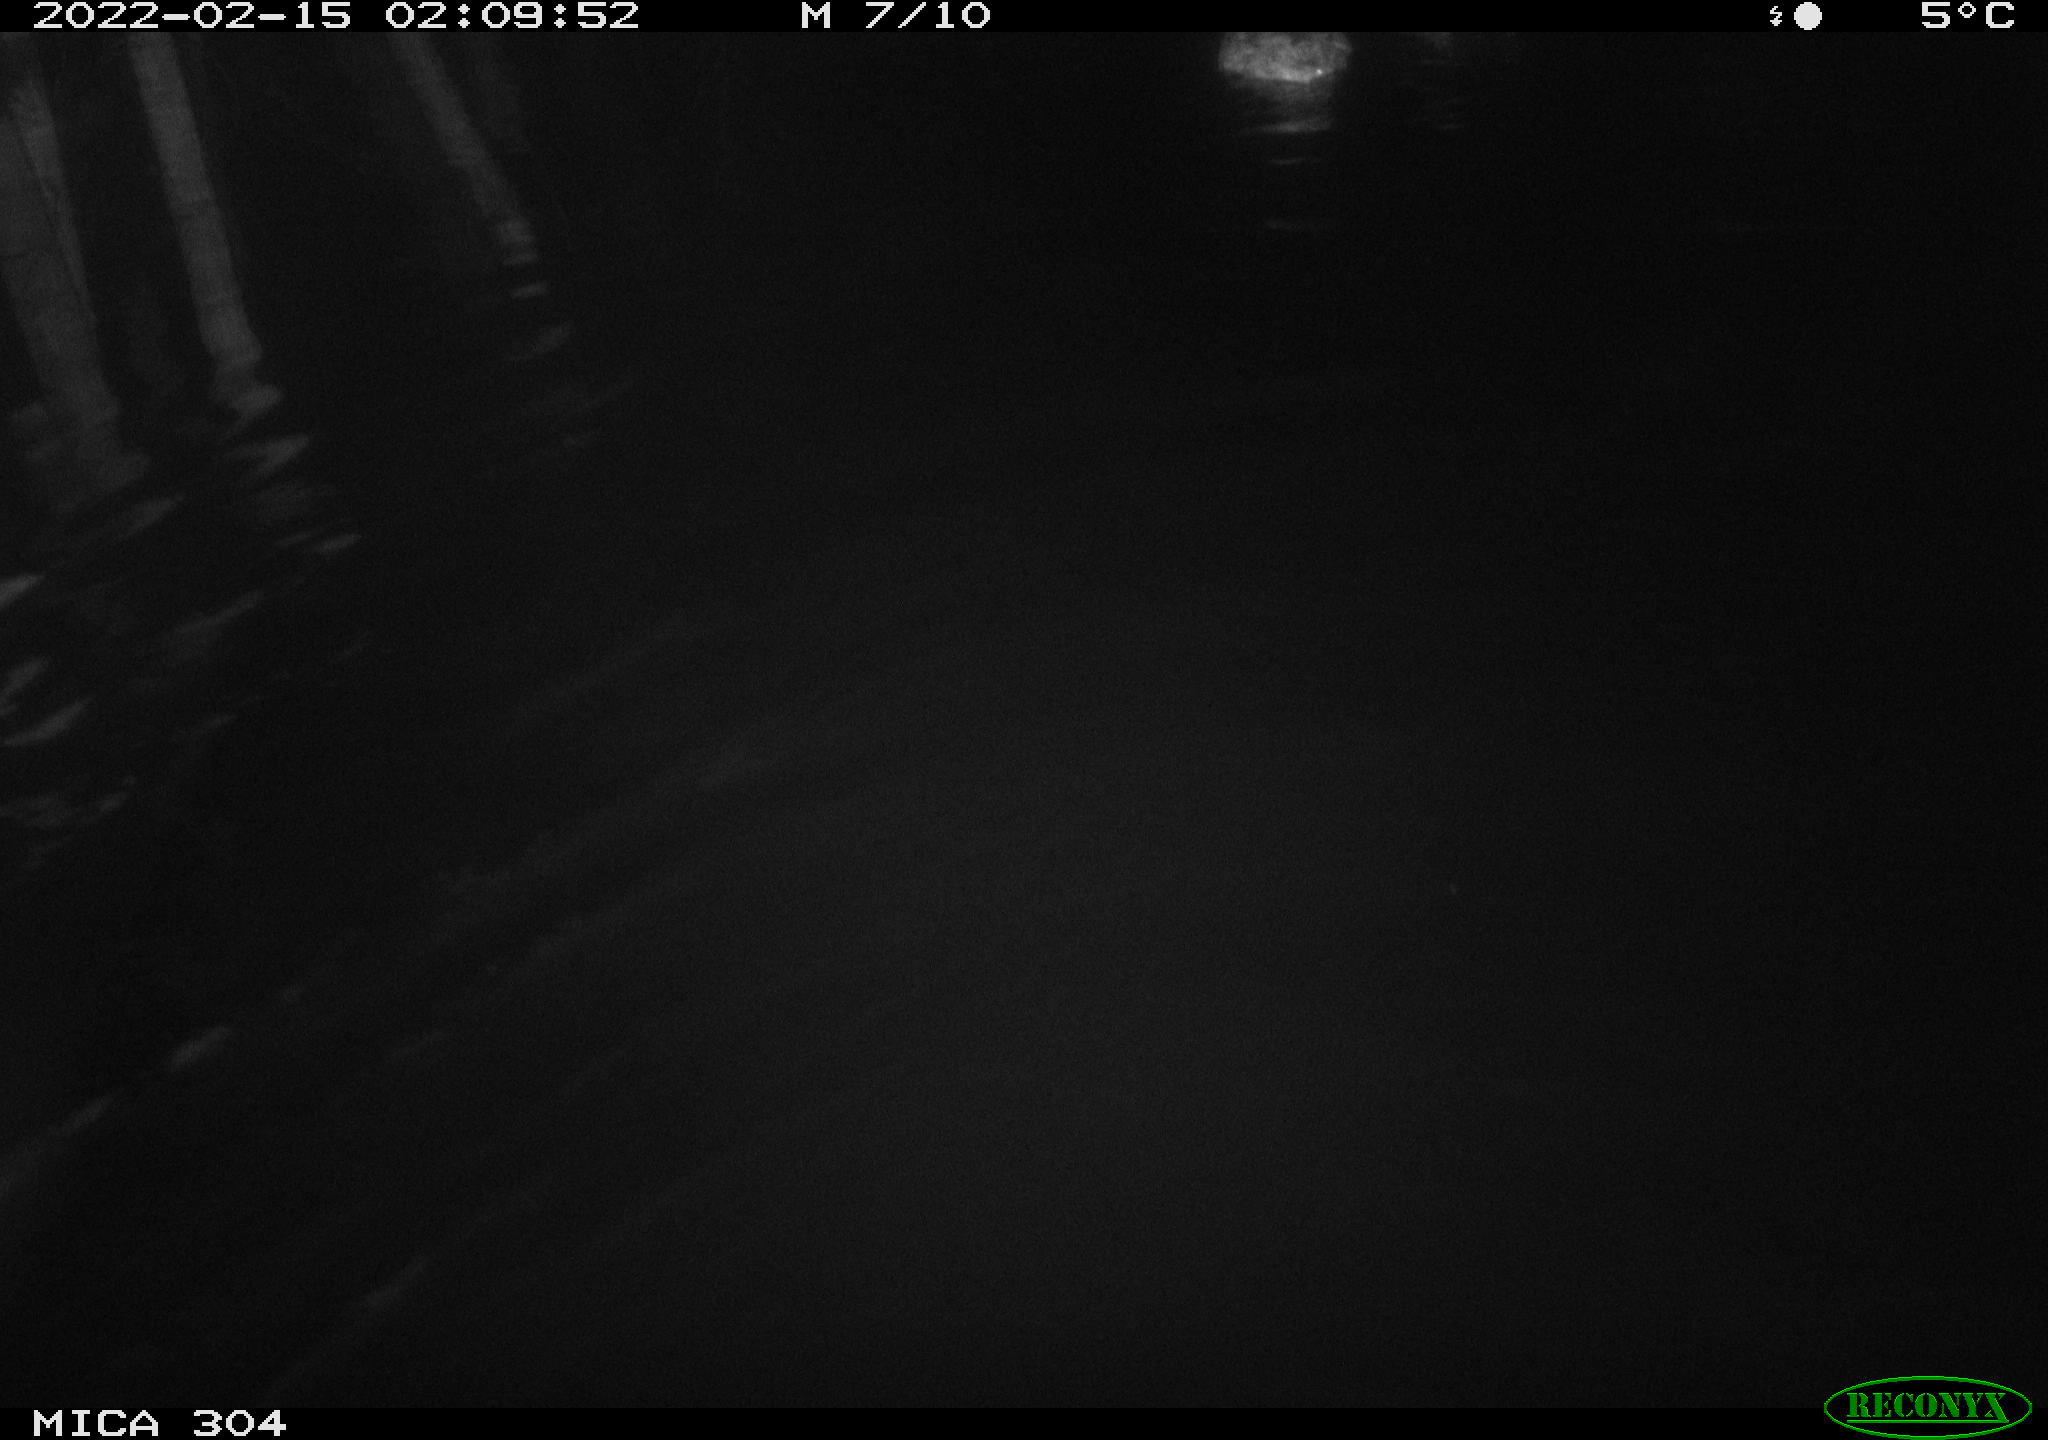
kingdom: Animalia
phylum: Chordata
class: Aves
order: Anseriformes
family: Anatidae
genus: Anas
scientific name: Anas platyrhynchos
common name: Mallard
